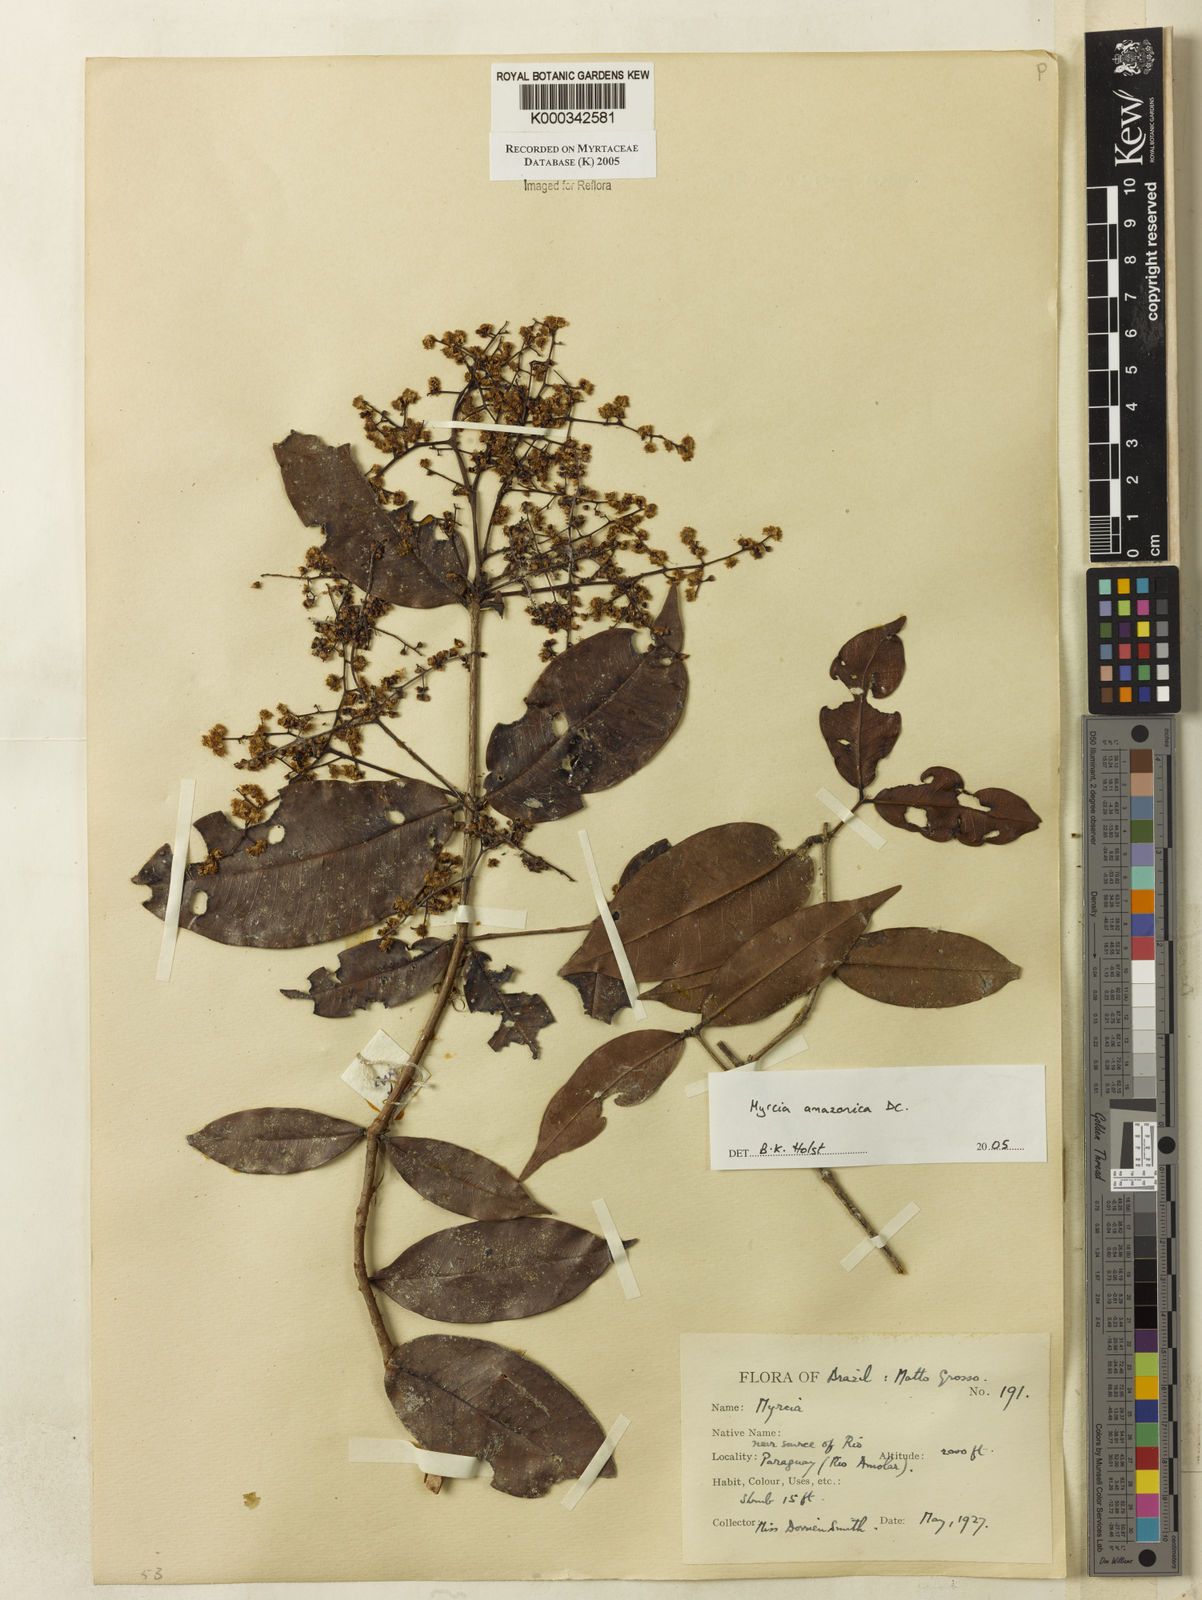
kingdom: Plantae
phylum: Tracheophyta
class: Magnoliopsida
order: Myrtales
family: Myrtaceae
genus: Myrcia
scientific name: Myrcia amazonica
